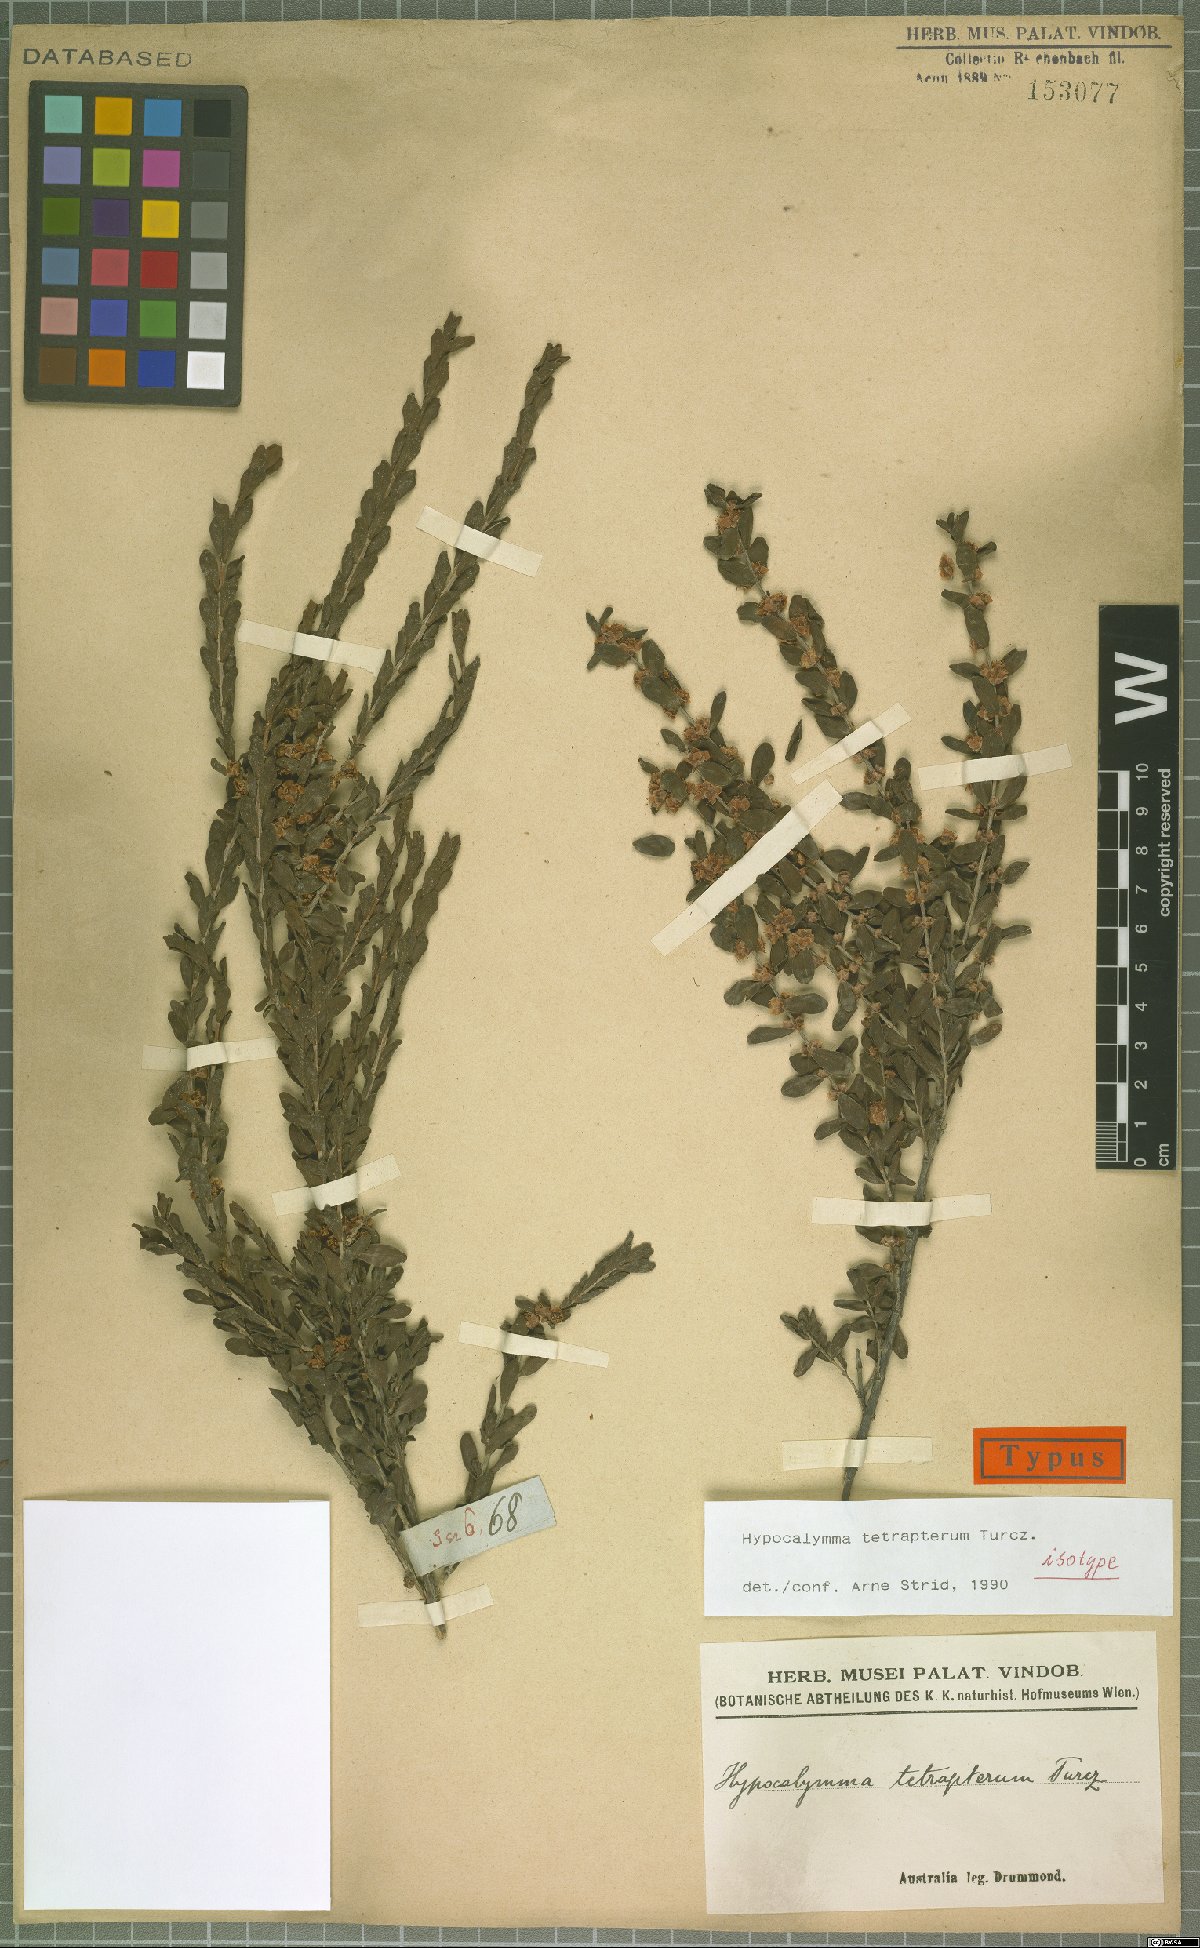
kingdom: Plantae
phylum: Tracheophyta
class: Magnoliopsida
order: Myrtales
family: Myrtaceae
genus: Hypocalymma
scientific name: Hypocalymma tetrapterum
